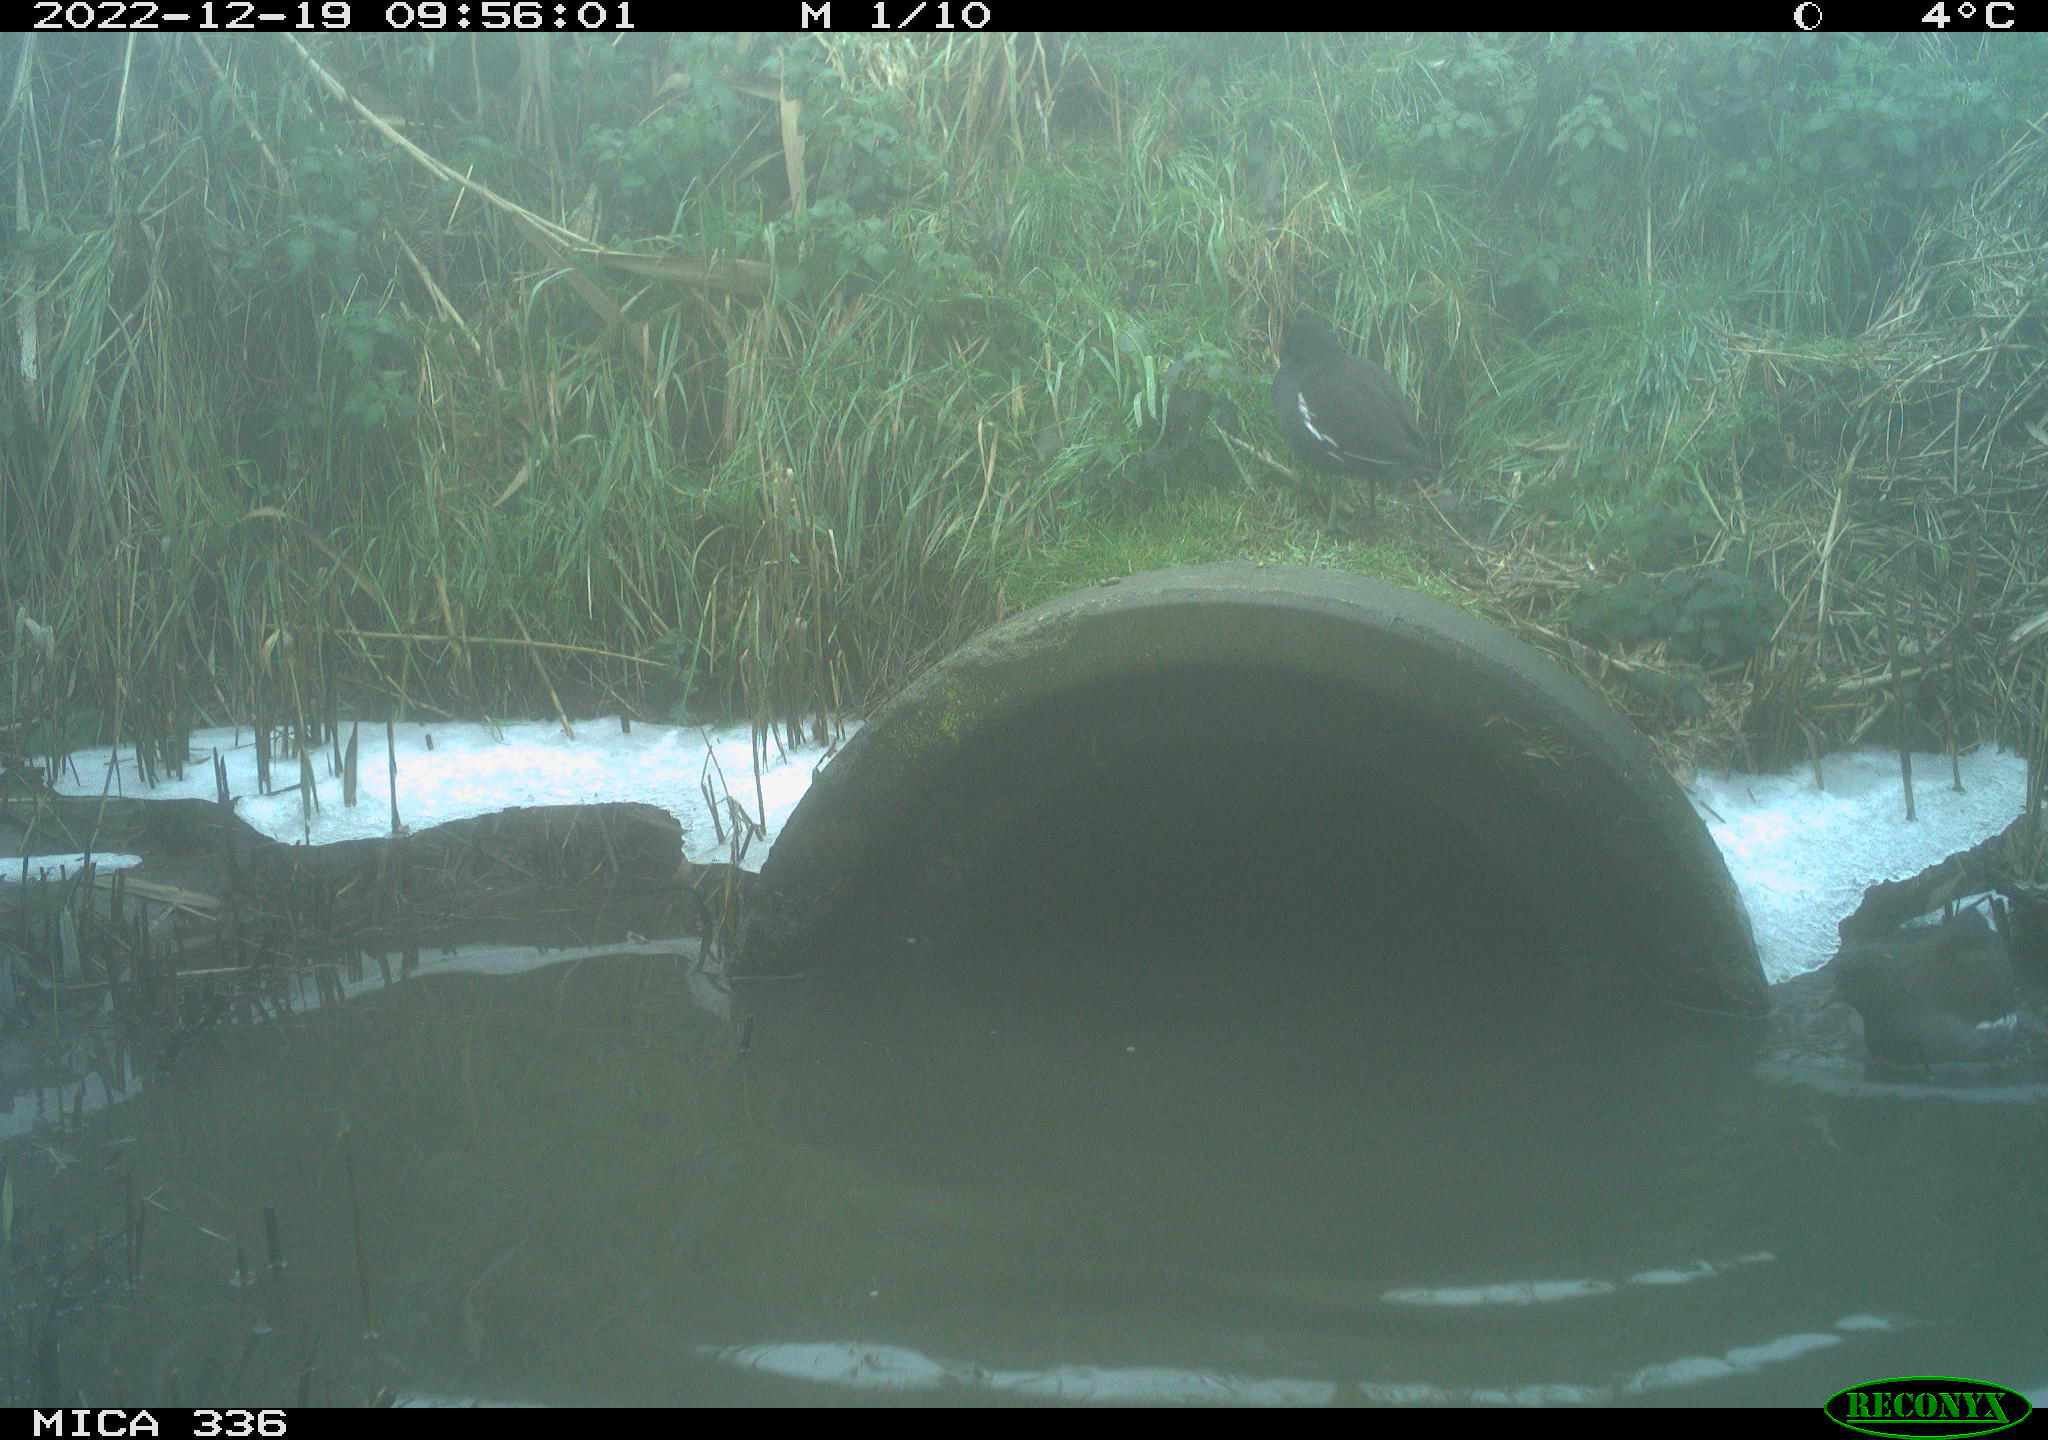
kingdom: Animalia
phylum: Chordata
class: Aves
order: Gruiformes
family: Rallidae
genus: Gallinula
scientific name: Gallinula chloropus
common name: Common moorhen
